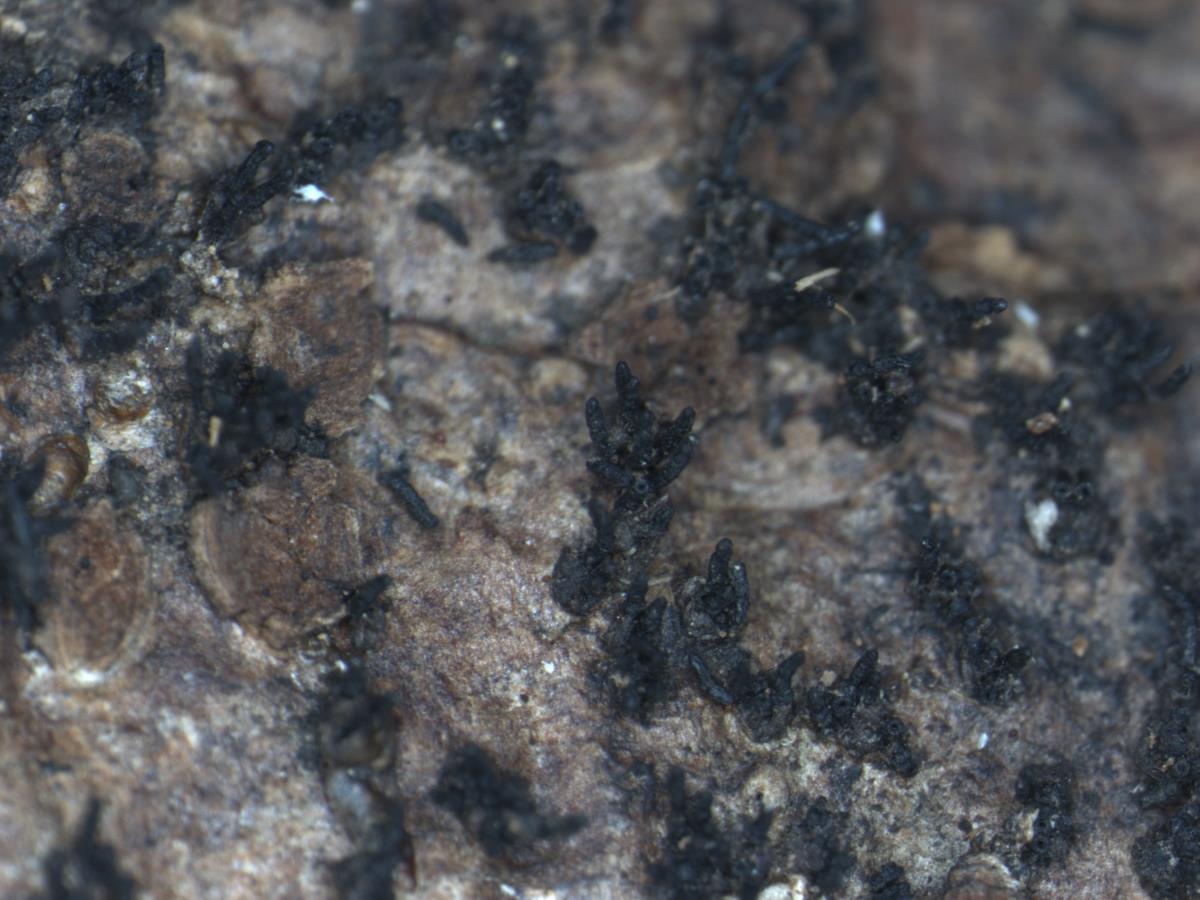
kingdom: Fungi
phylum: Ascomycota
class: Sordariomycetes
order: Diaporthales
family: Valsaceae
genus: Valsa
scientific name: Valsa
